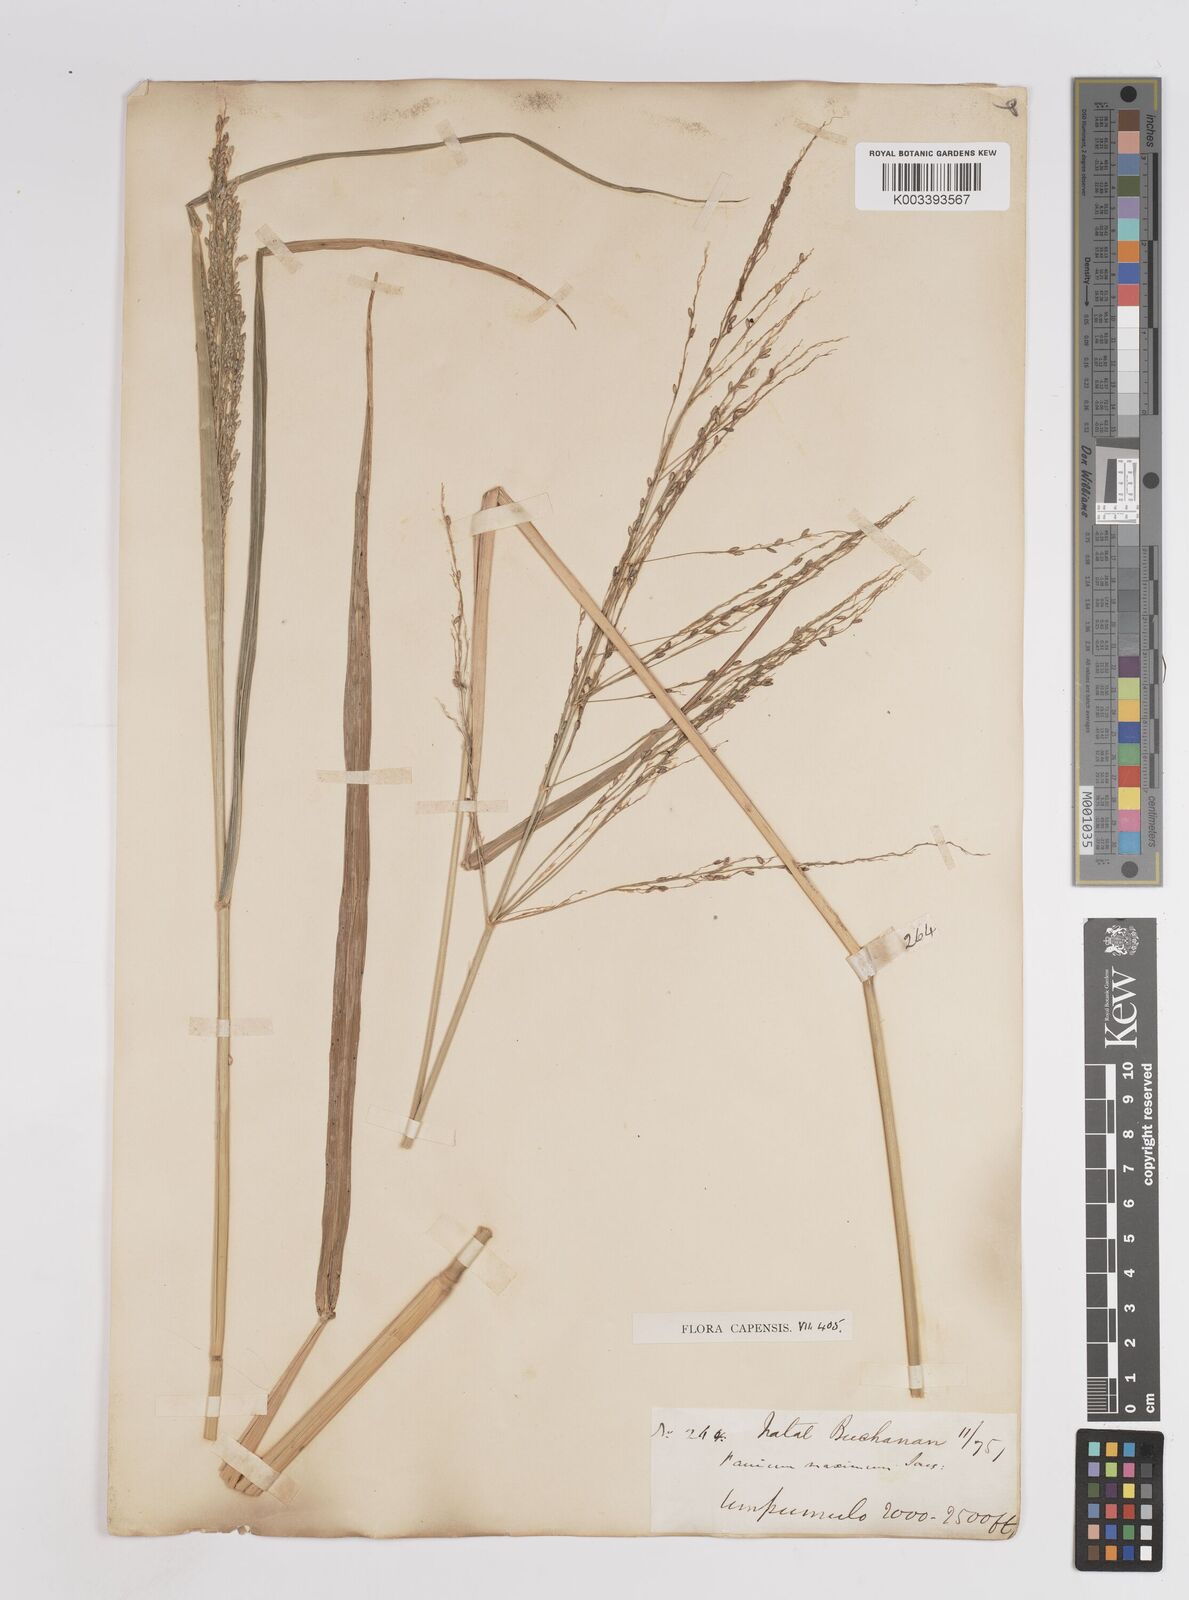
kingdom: Plantae
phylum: Tracheophyta
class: Liliopsida
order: Poales
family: Poaceae
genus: Megathyrsus
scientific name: Megathyrsus maximus
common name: Guineagrass
